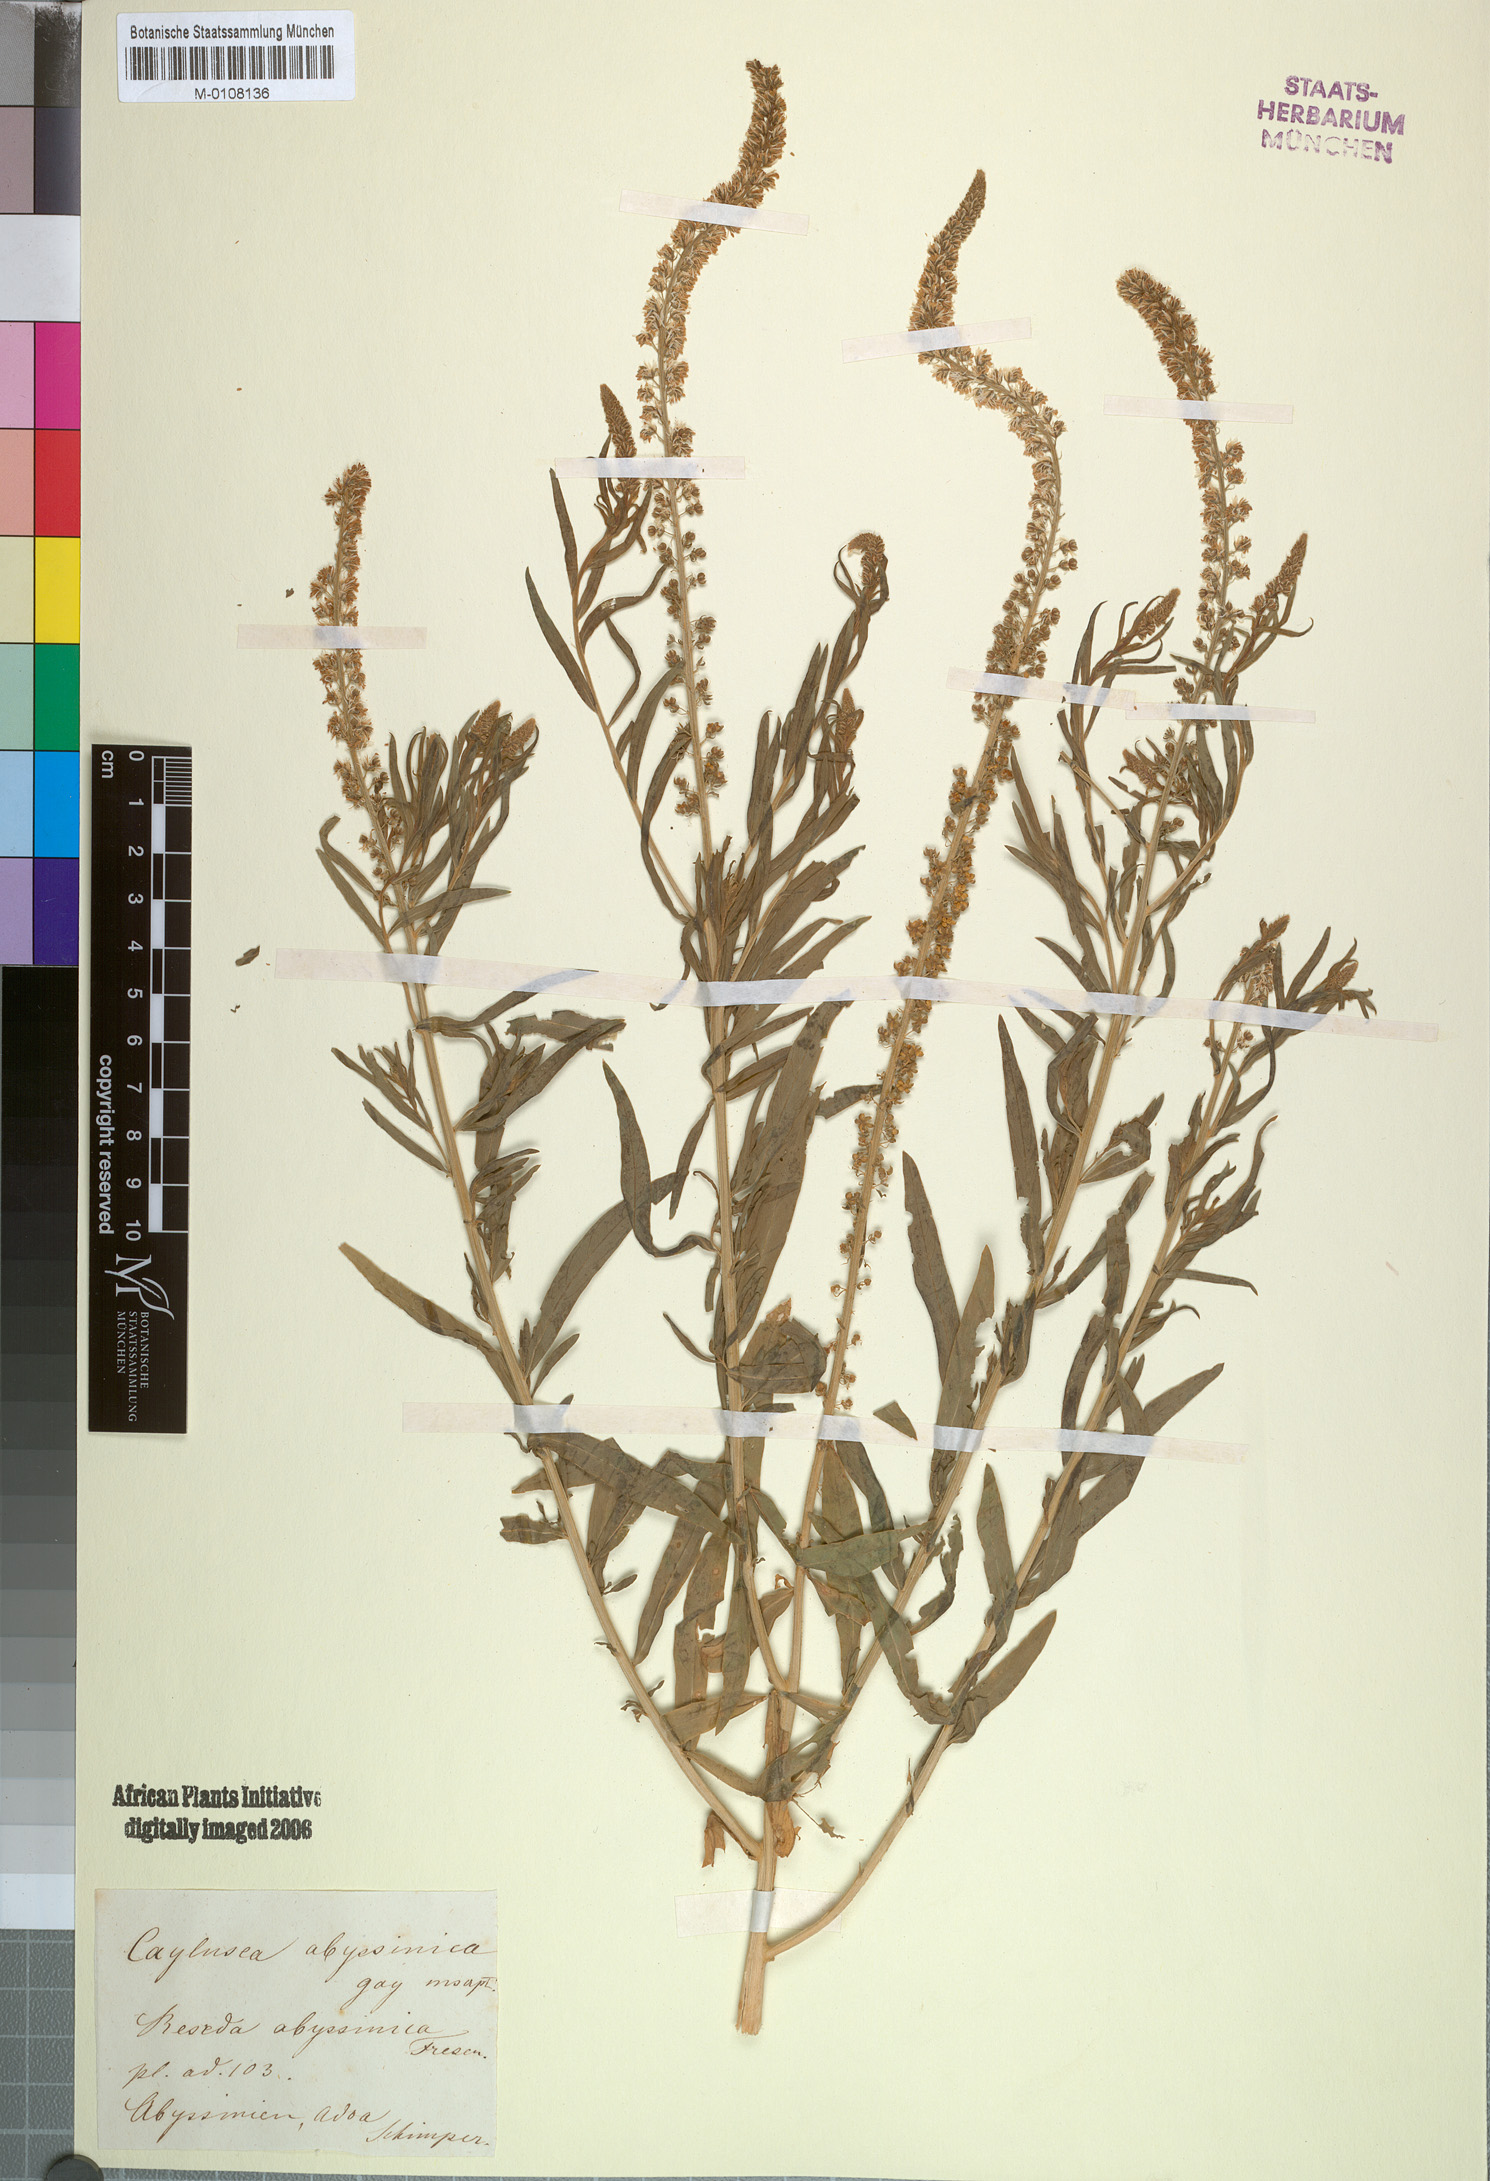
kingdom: Plantae
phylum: Tracheophyta
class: Magnoliopsida
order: Brassicales
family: Resedaceae
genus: Caylusea
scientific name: Caylusea abyssinica
